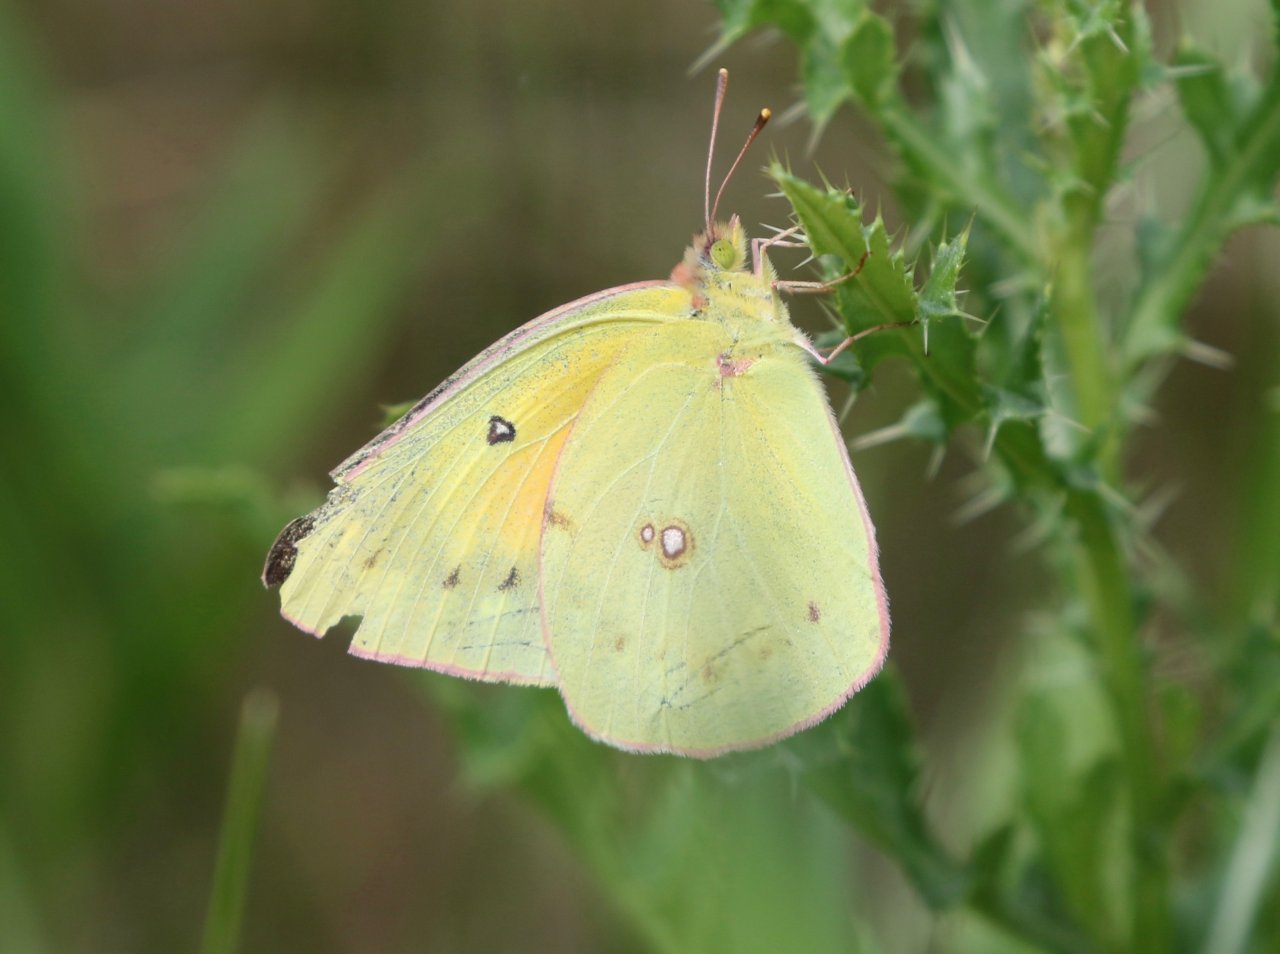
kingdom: Animalia
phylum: Arthropoda
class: Insecta
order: Lepidoptera
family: Pieridae
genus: Colias
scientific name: Colias eurytheme
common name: Orange Sulphur
